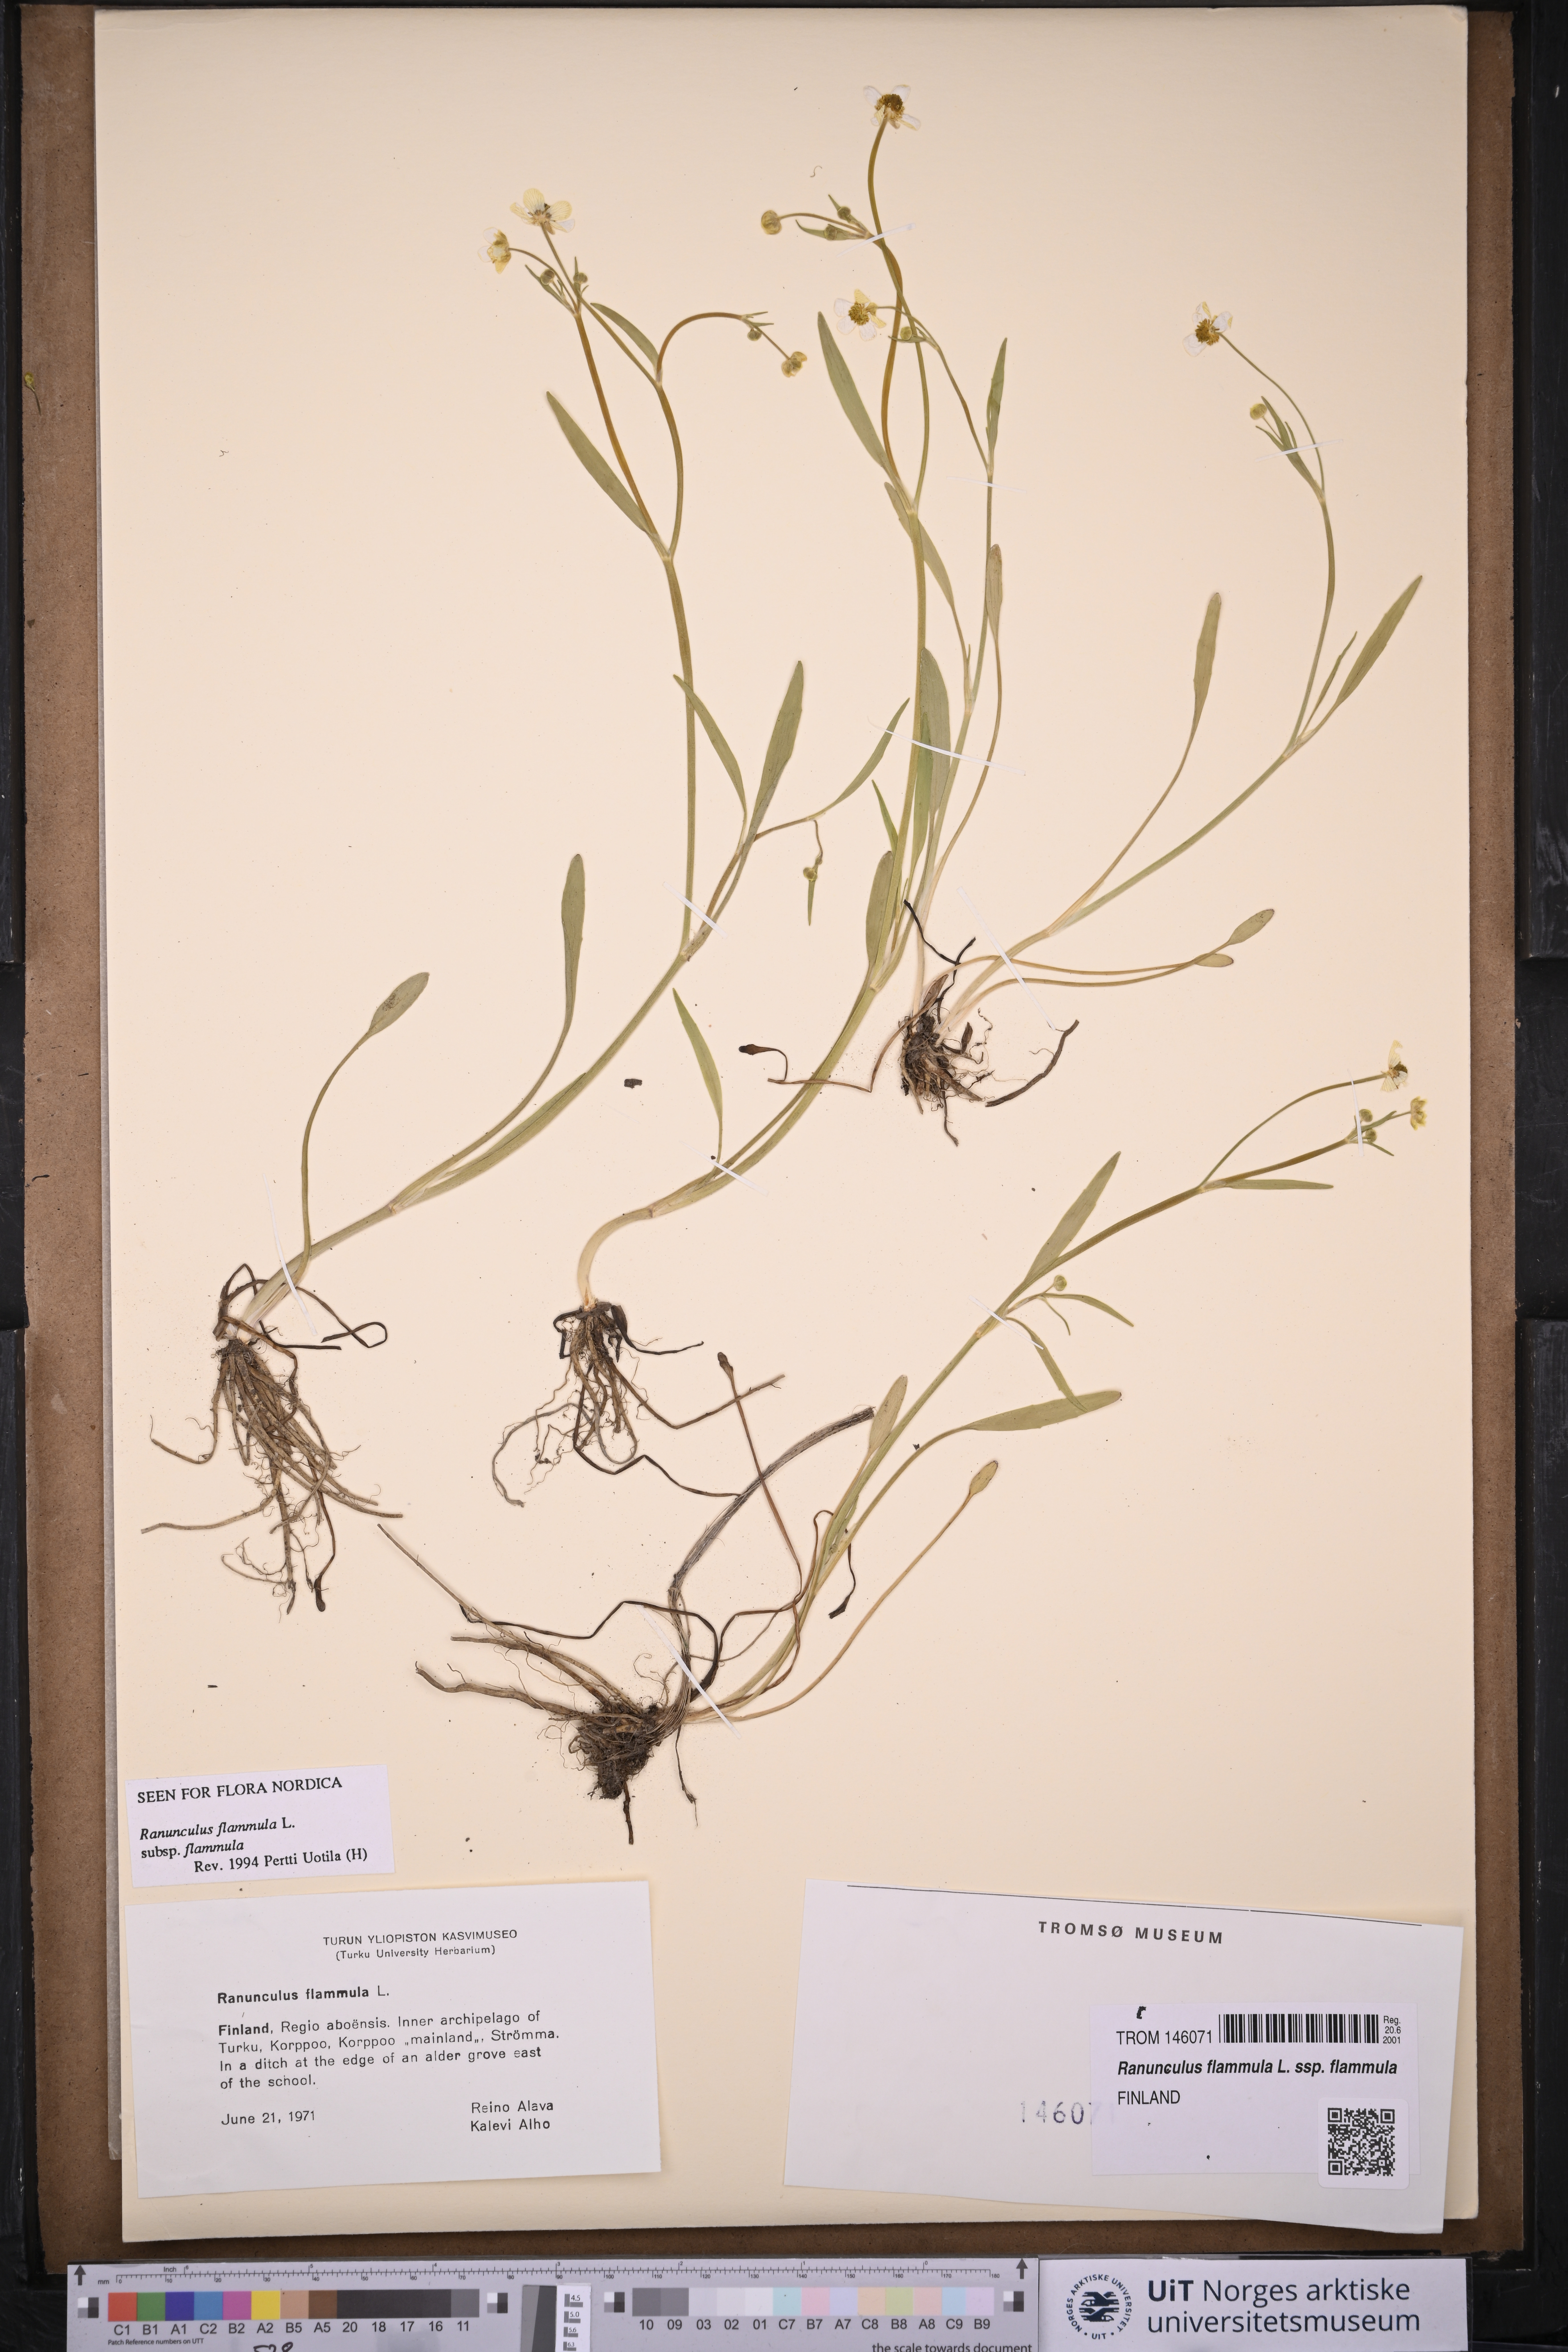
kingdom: Plantae
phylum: Tracheophyta
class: Magnoliopsida
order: Ranunculales
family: Ranunculaceae
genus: Ranunculus
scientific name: Ranunculus flammula
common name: Lesser spearwort
